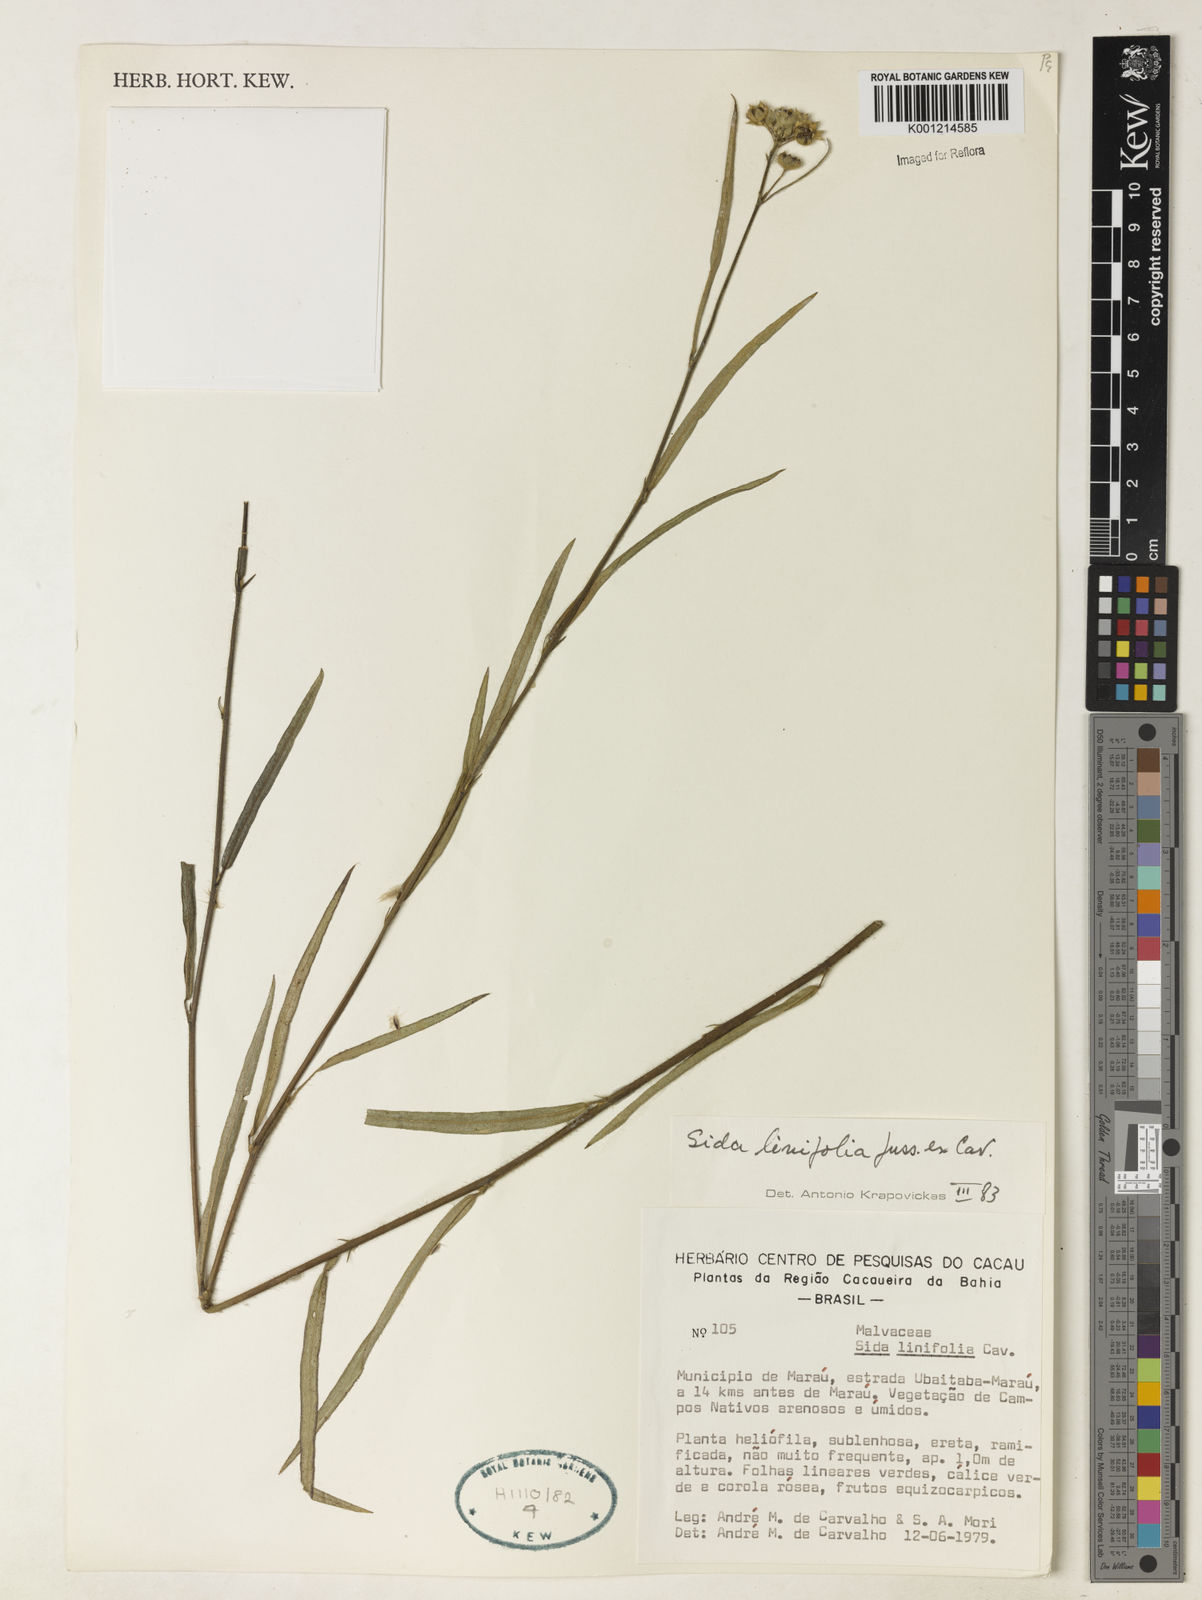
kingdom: Plantae
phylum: Tracheophyta
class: Magnoliopsida
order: Malvales
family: Malvaceae
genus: Sida
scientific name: Sida linifolia
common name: Flaxleaf fanpetals
